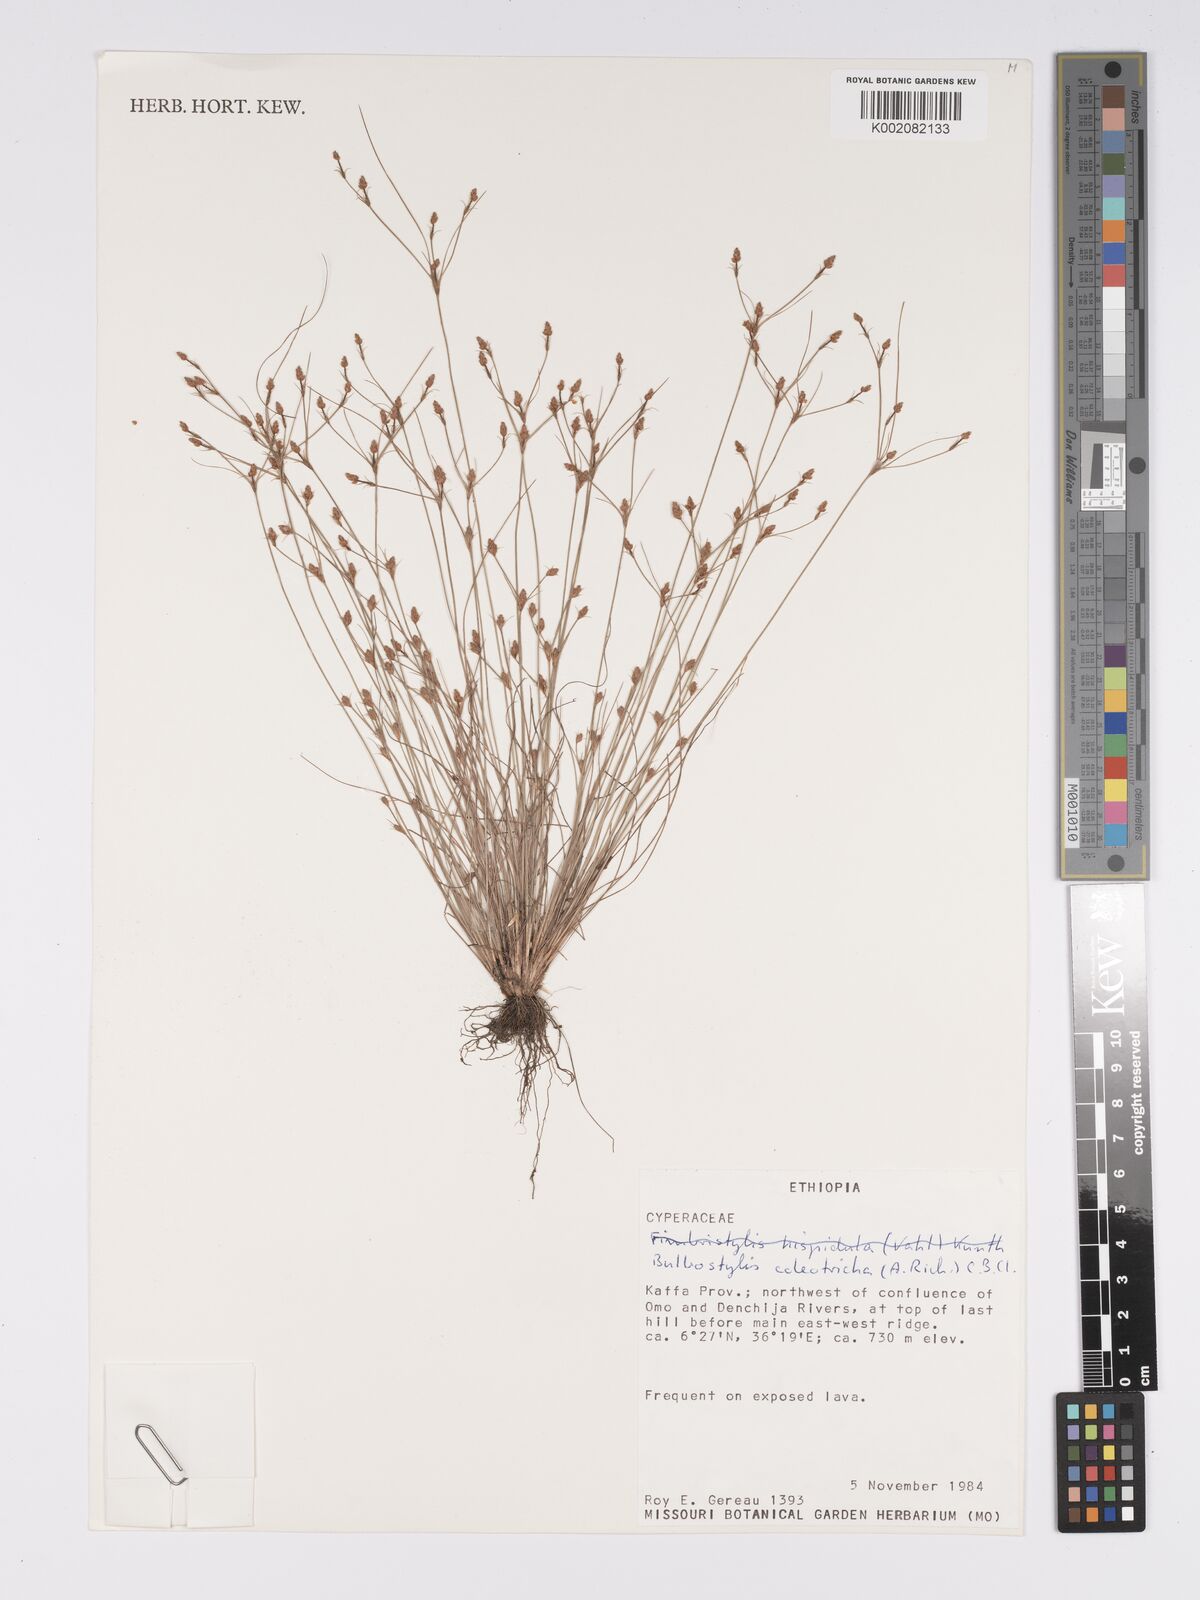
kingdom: Plantae
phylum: Tracheophyta
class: Liliopsida
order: Poales
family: Cyperaceae
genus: Bulbostylis
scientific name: Bulbostylis coleotricha
